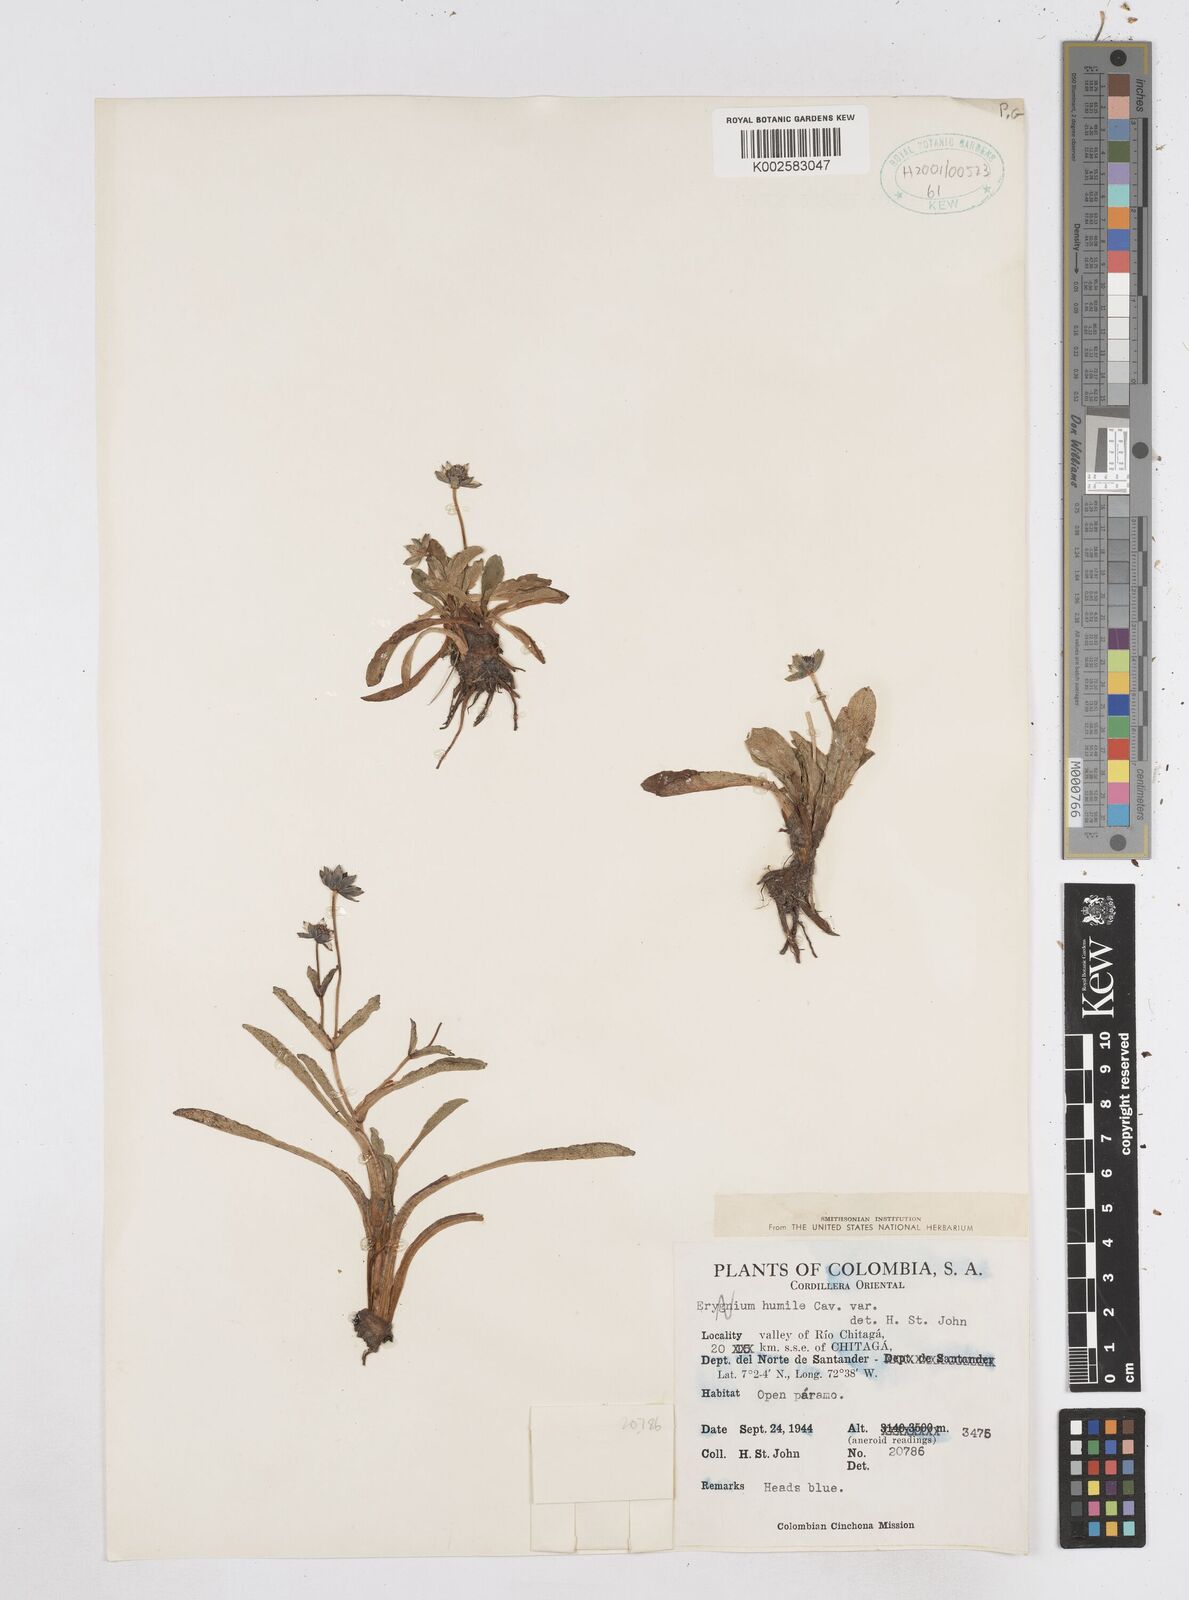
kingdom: Plantae
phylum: Tracheophyta
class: Magnoliopsida
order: Apiales
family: Apiaceae
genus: Eryngium
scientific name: Eryngium humile
